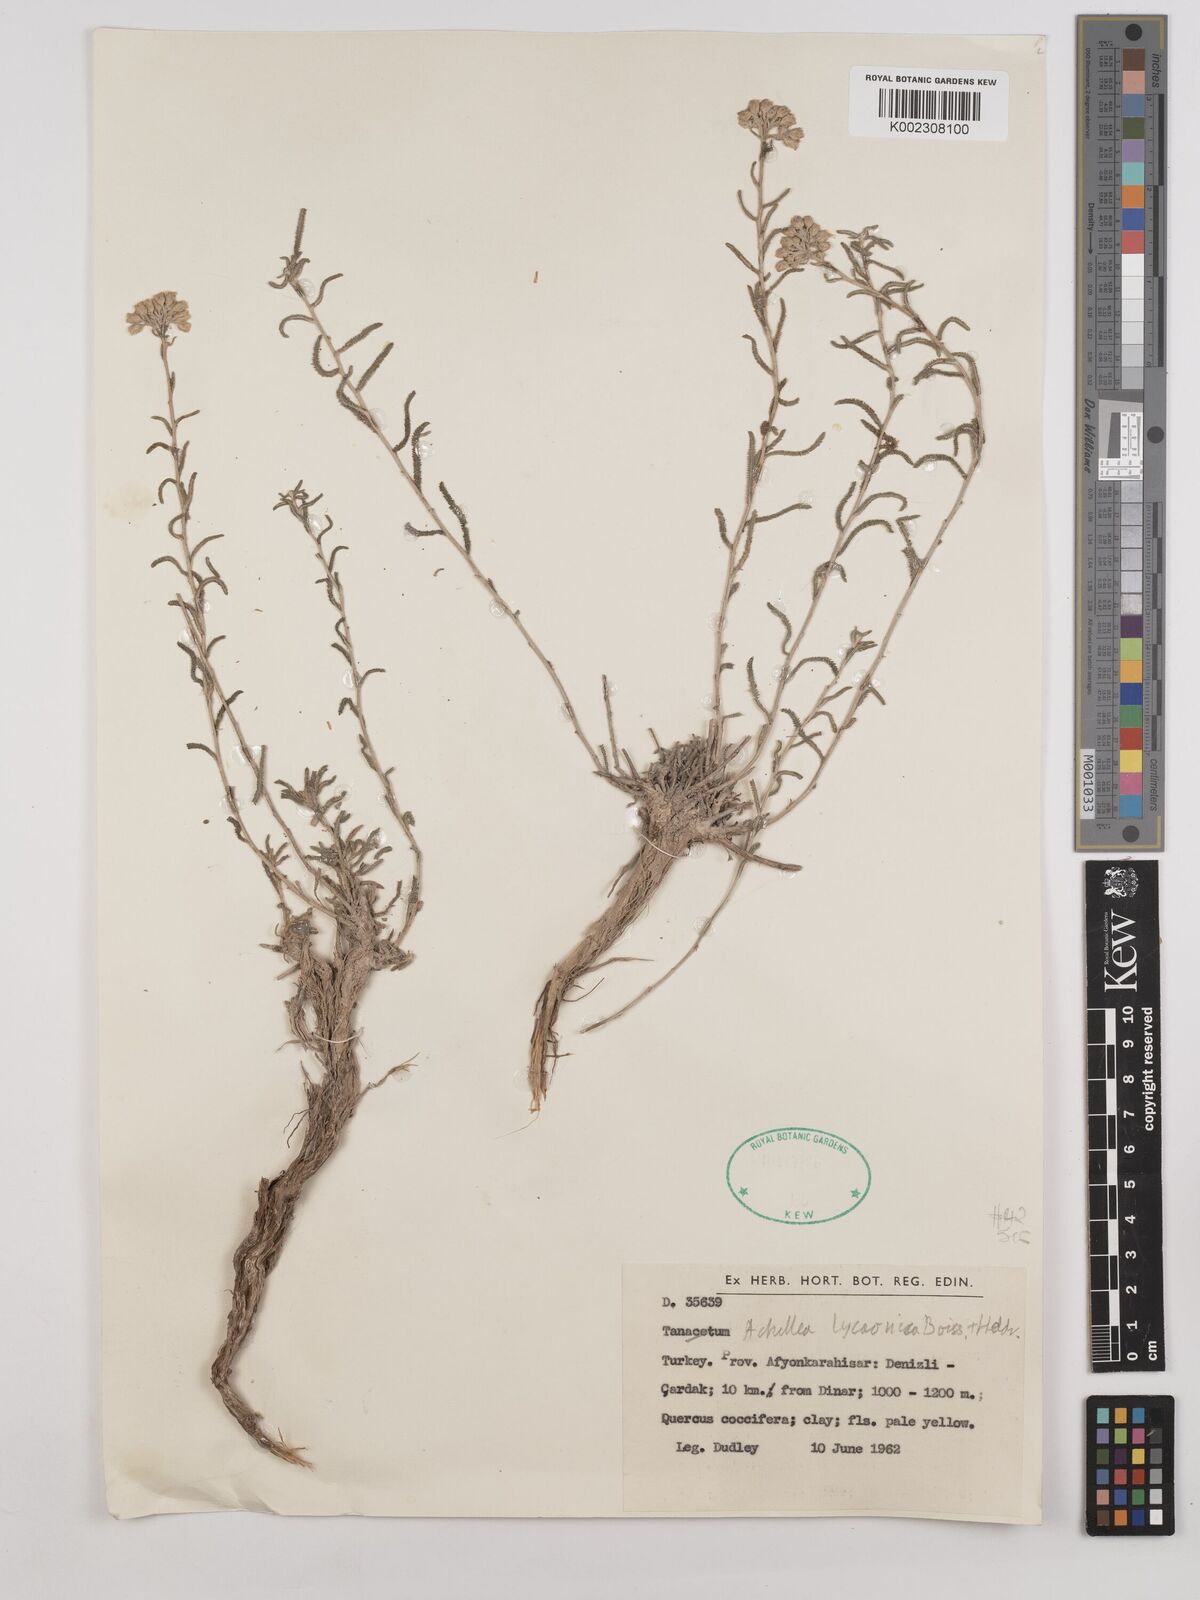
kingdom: Plantae
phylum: Tracheophyta
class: Magnoliopsida
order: Asterales
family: Asteraceae
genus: Achillea
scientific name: Achillea lycaonica
